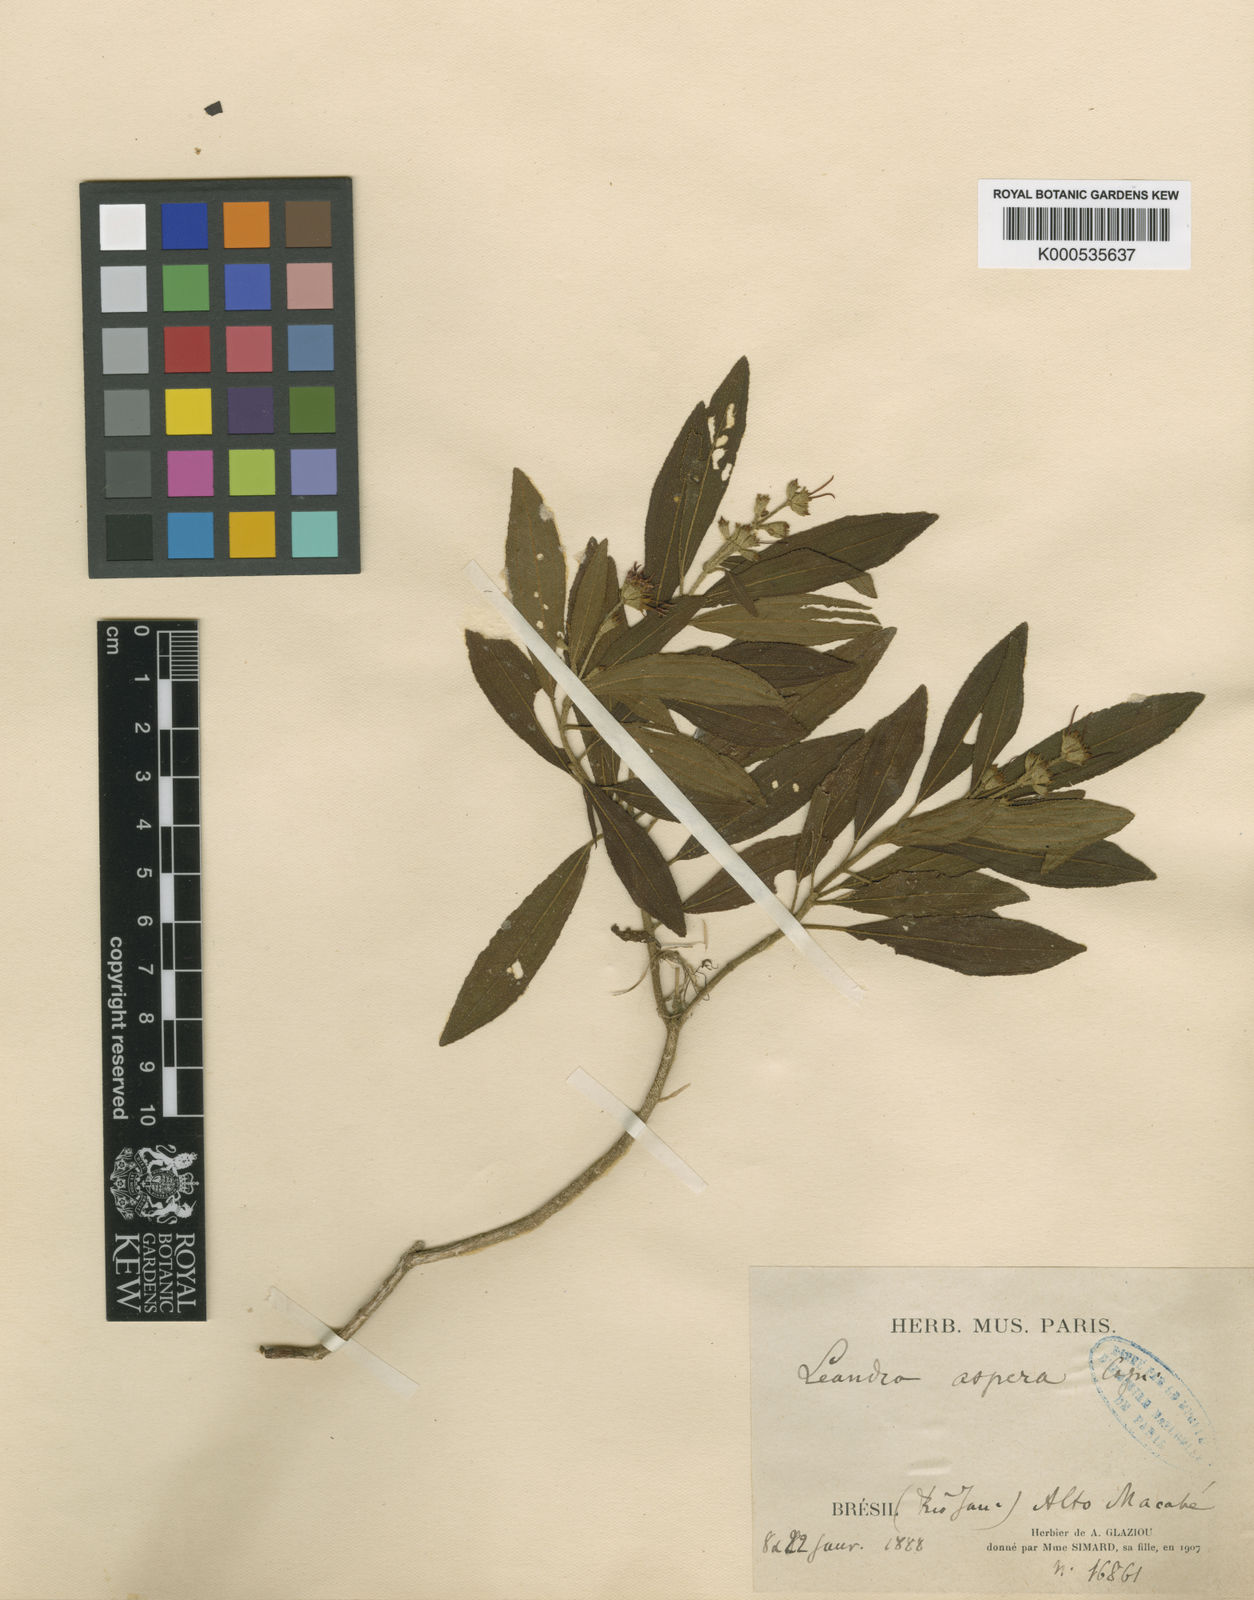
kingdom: Plantae
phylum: Tracheophyta
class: Magnoliopsida
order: Myrtales
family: Melastomataceae
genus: Miconia
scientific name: Miconia aspera
